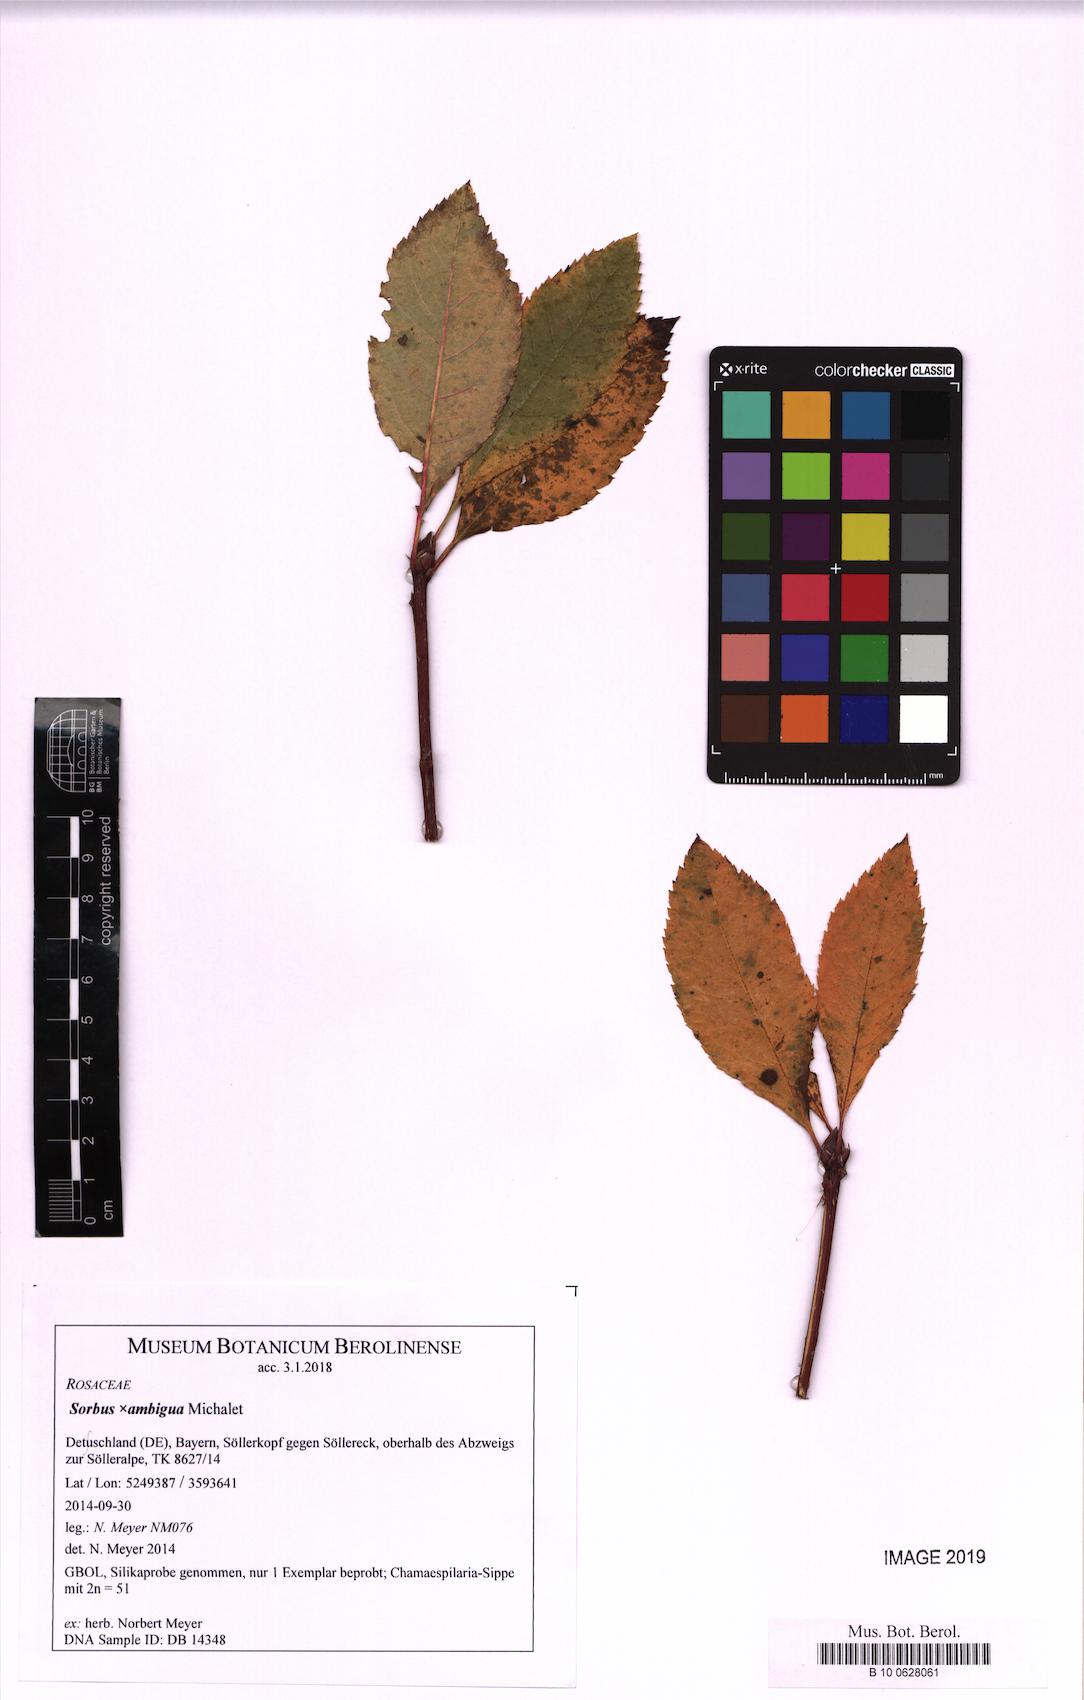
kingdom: Plantae
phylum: Tracheophyta
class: Magnoliopsida
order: Rosales
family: Rosaceae
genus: Majovskya
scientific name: Majovskya ambigua
